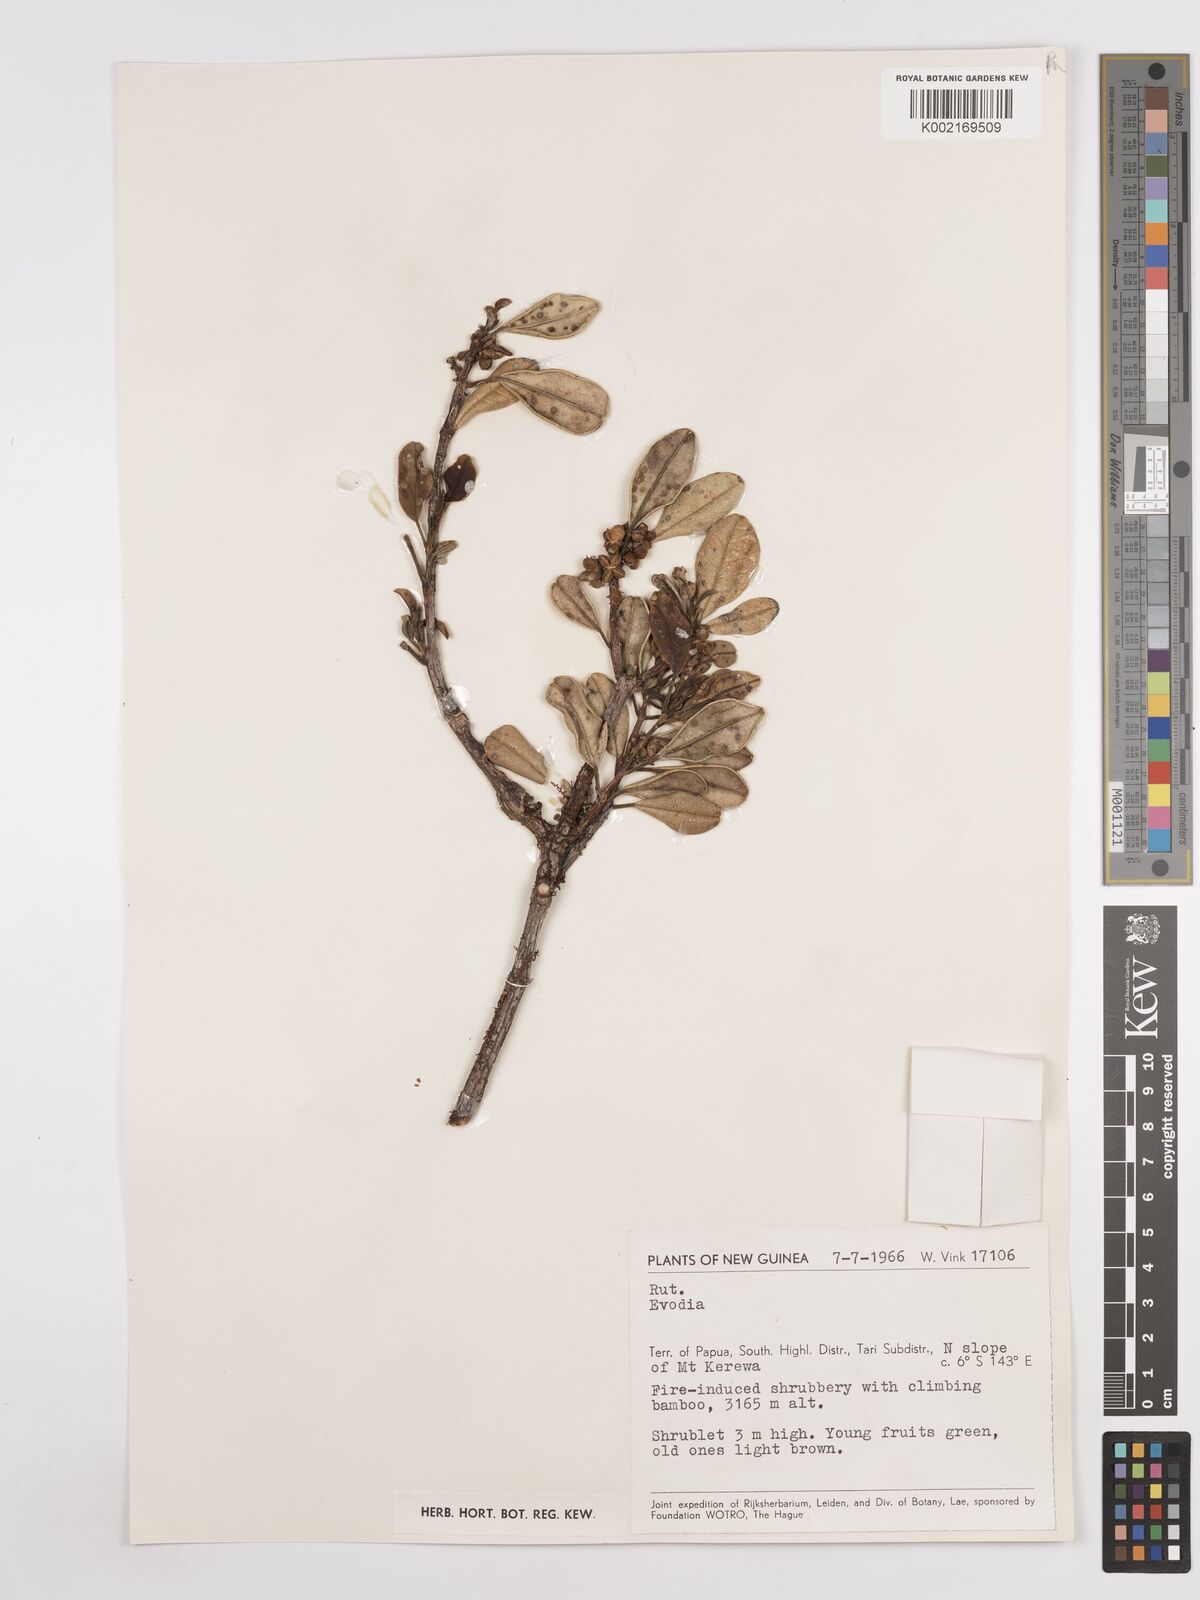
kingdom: Plantae
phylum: Tracheophyta
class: Magnoliopsida
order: Sapindales
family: Rutaceae
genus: Euodia
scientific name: Euodia
